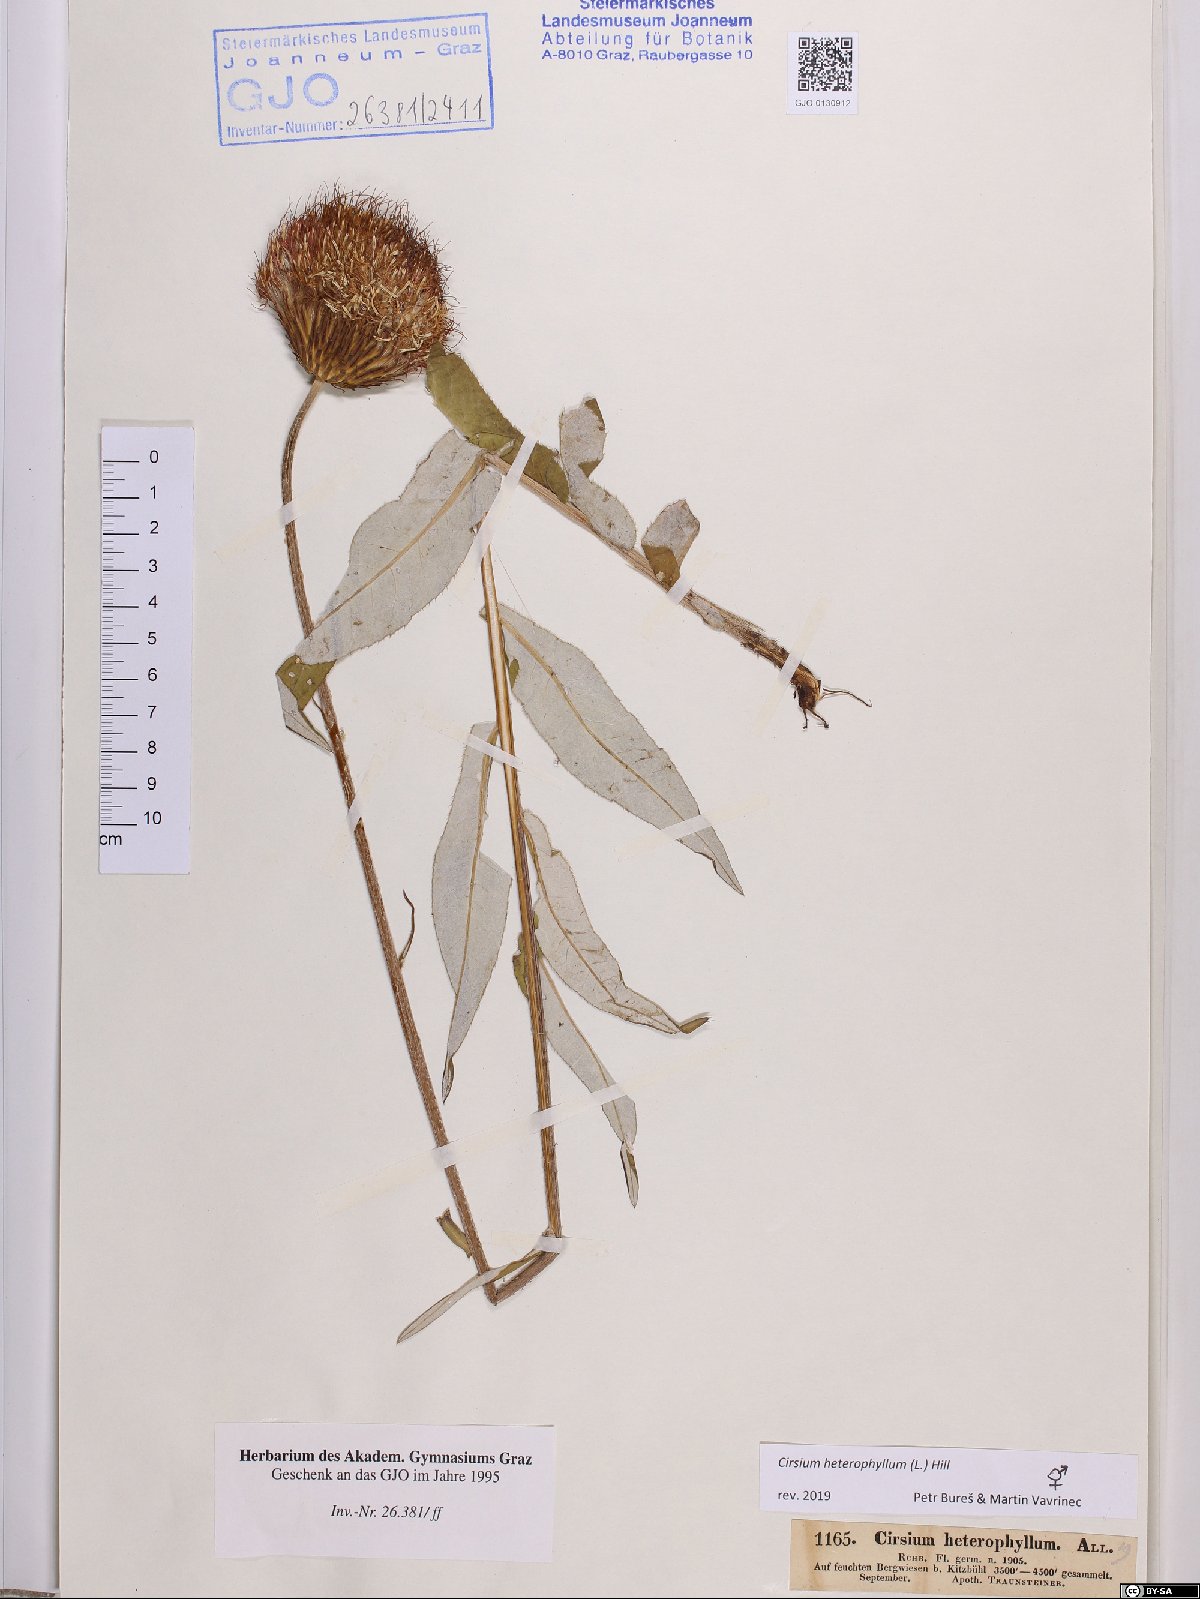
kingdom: Plantae
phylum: Tracheophyta
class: Magnoliopsida
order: Asterales
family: Asteraceae
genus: Cirsium
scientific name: Cirsium heterophyllum
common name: Melancholy thistle
